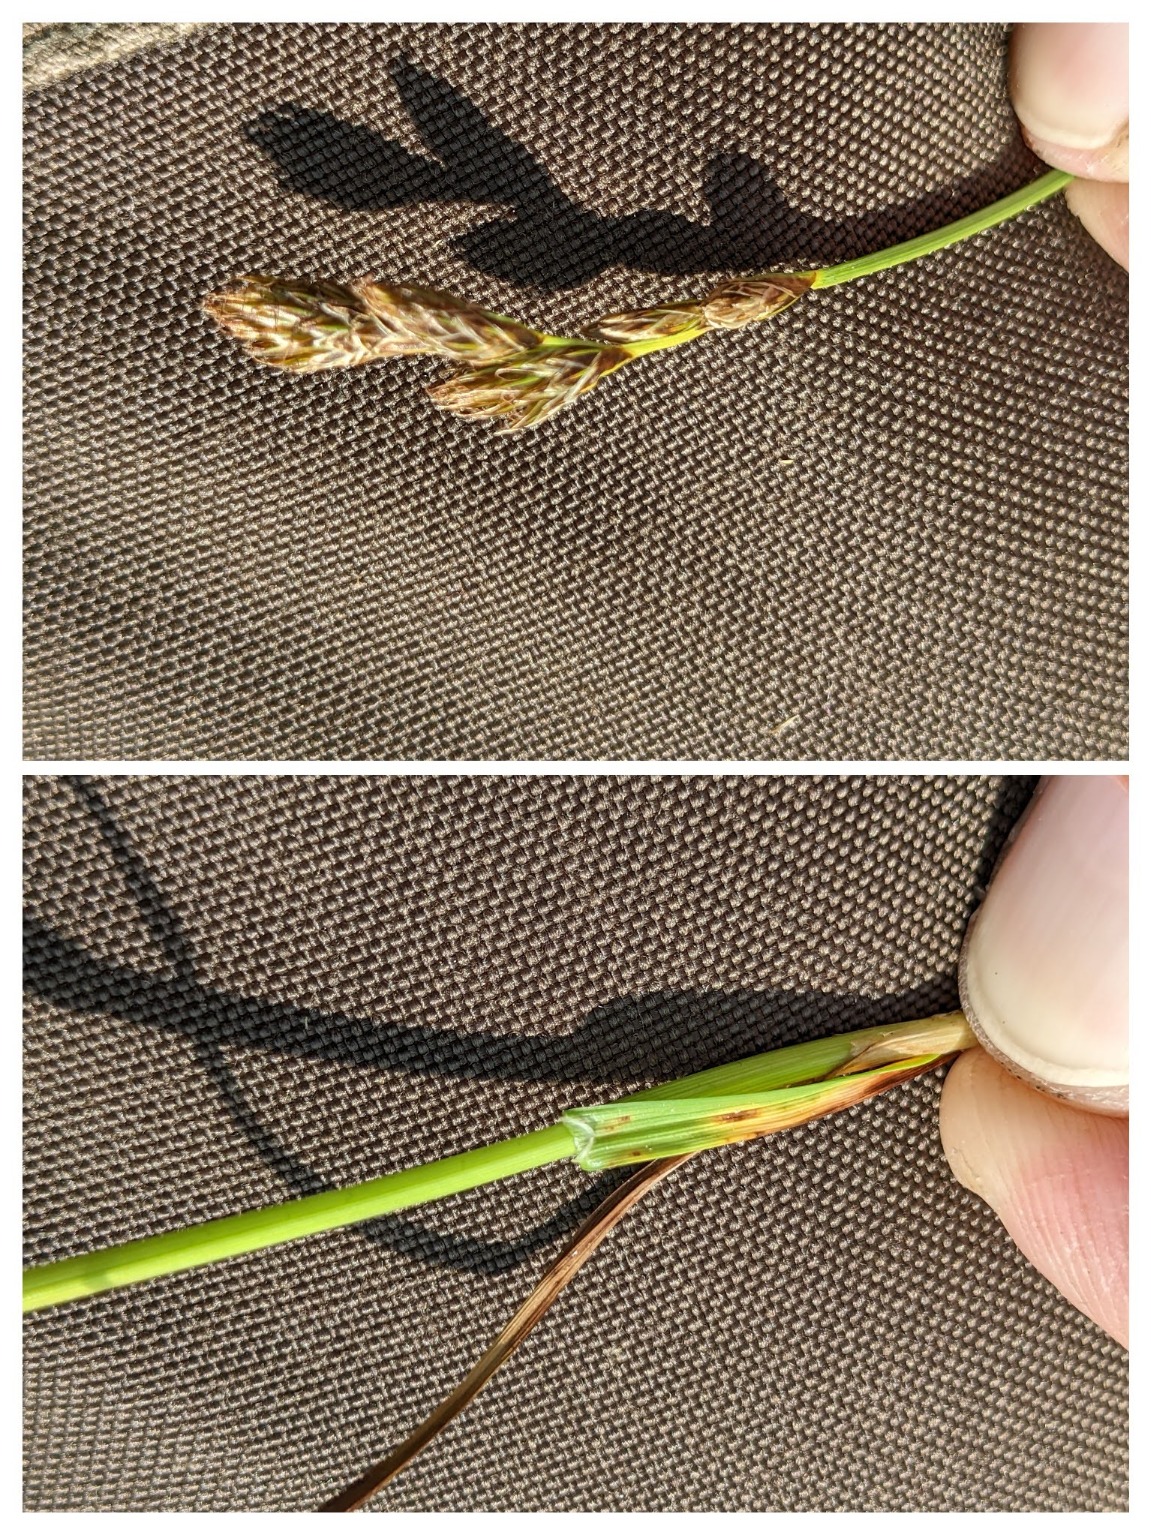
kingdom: Plantae
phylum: Tracheophyta
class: Liliopsida
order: Poales
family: Cyperaceae
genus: Carex
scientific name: Carex leporina
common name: Hare-star
